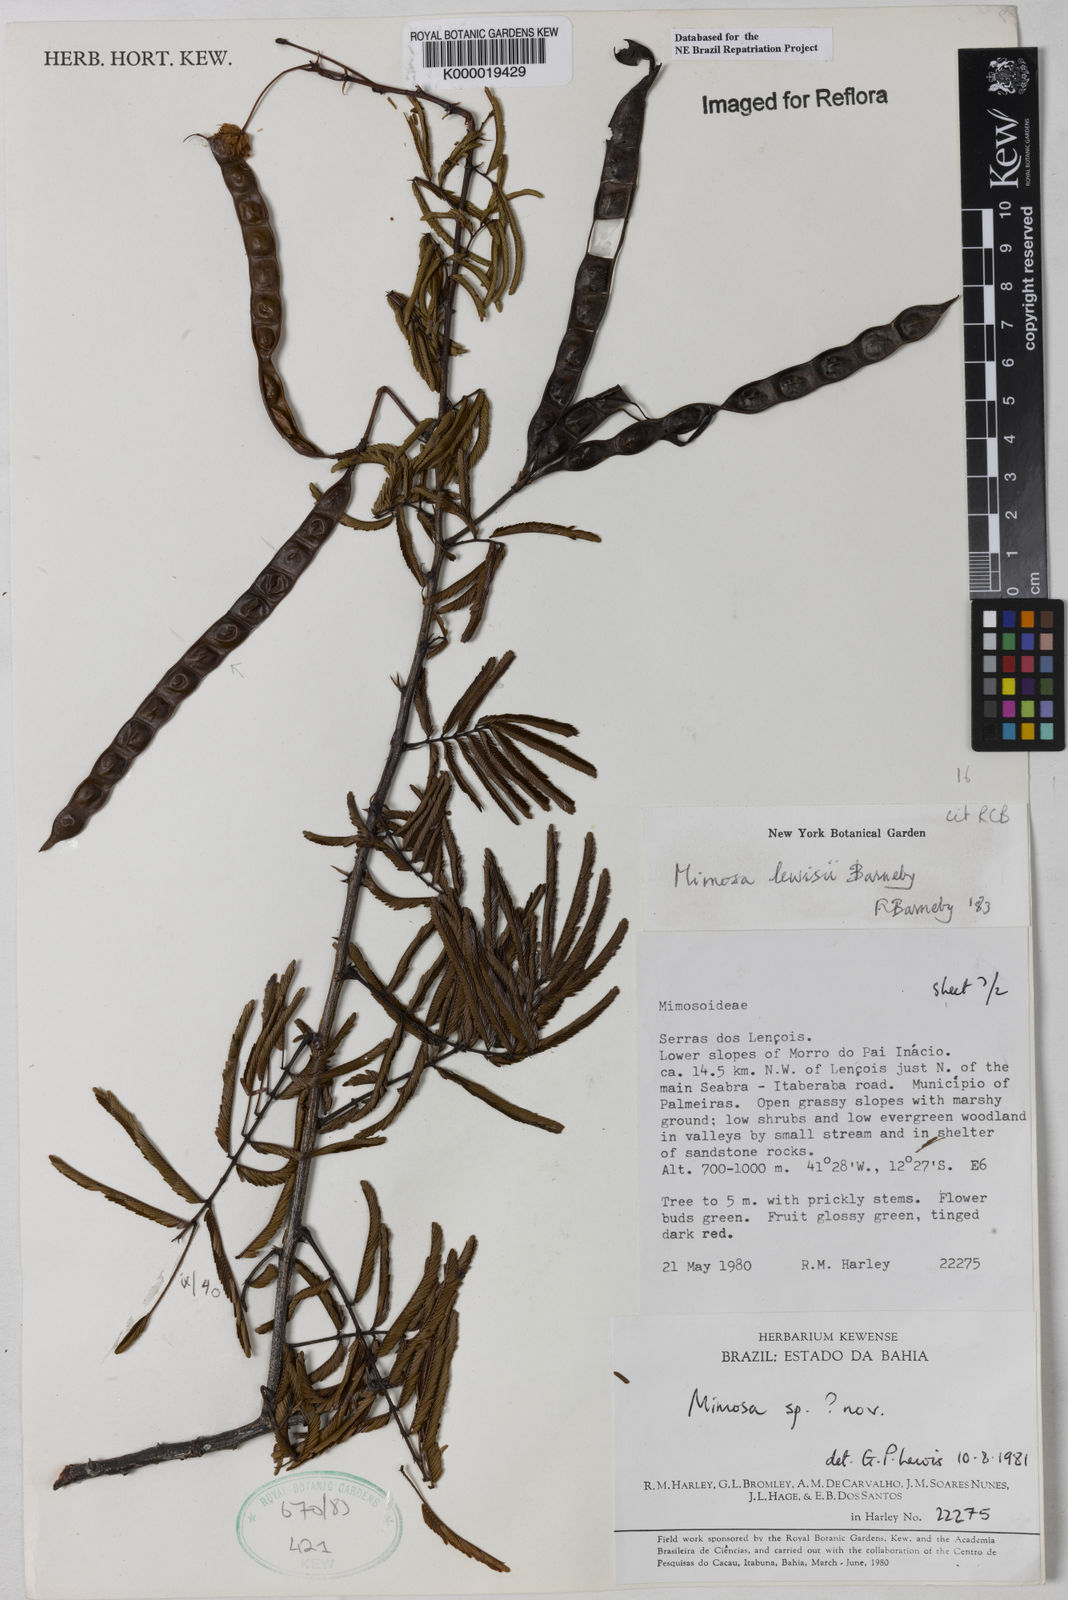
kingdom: Plantae
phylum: Tracheophyta
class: Magnoliopsida
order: Fabales
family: Fabaceae
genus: Mimosa
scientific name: Mimosa lewisii
